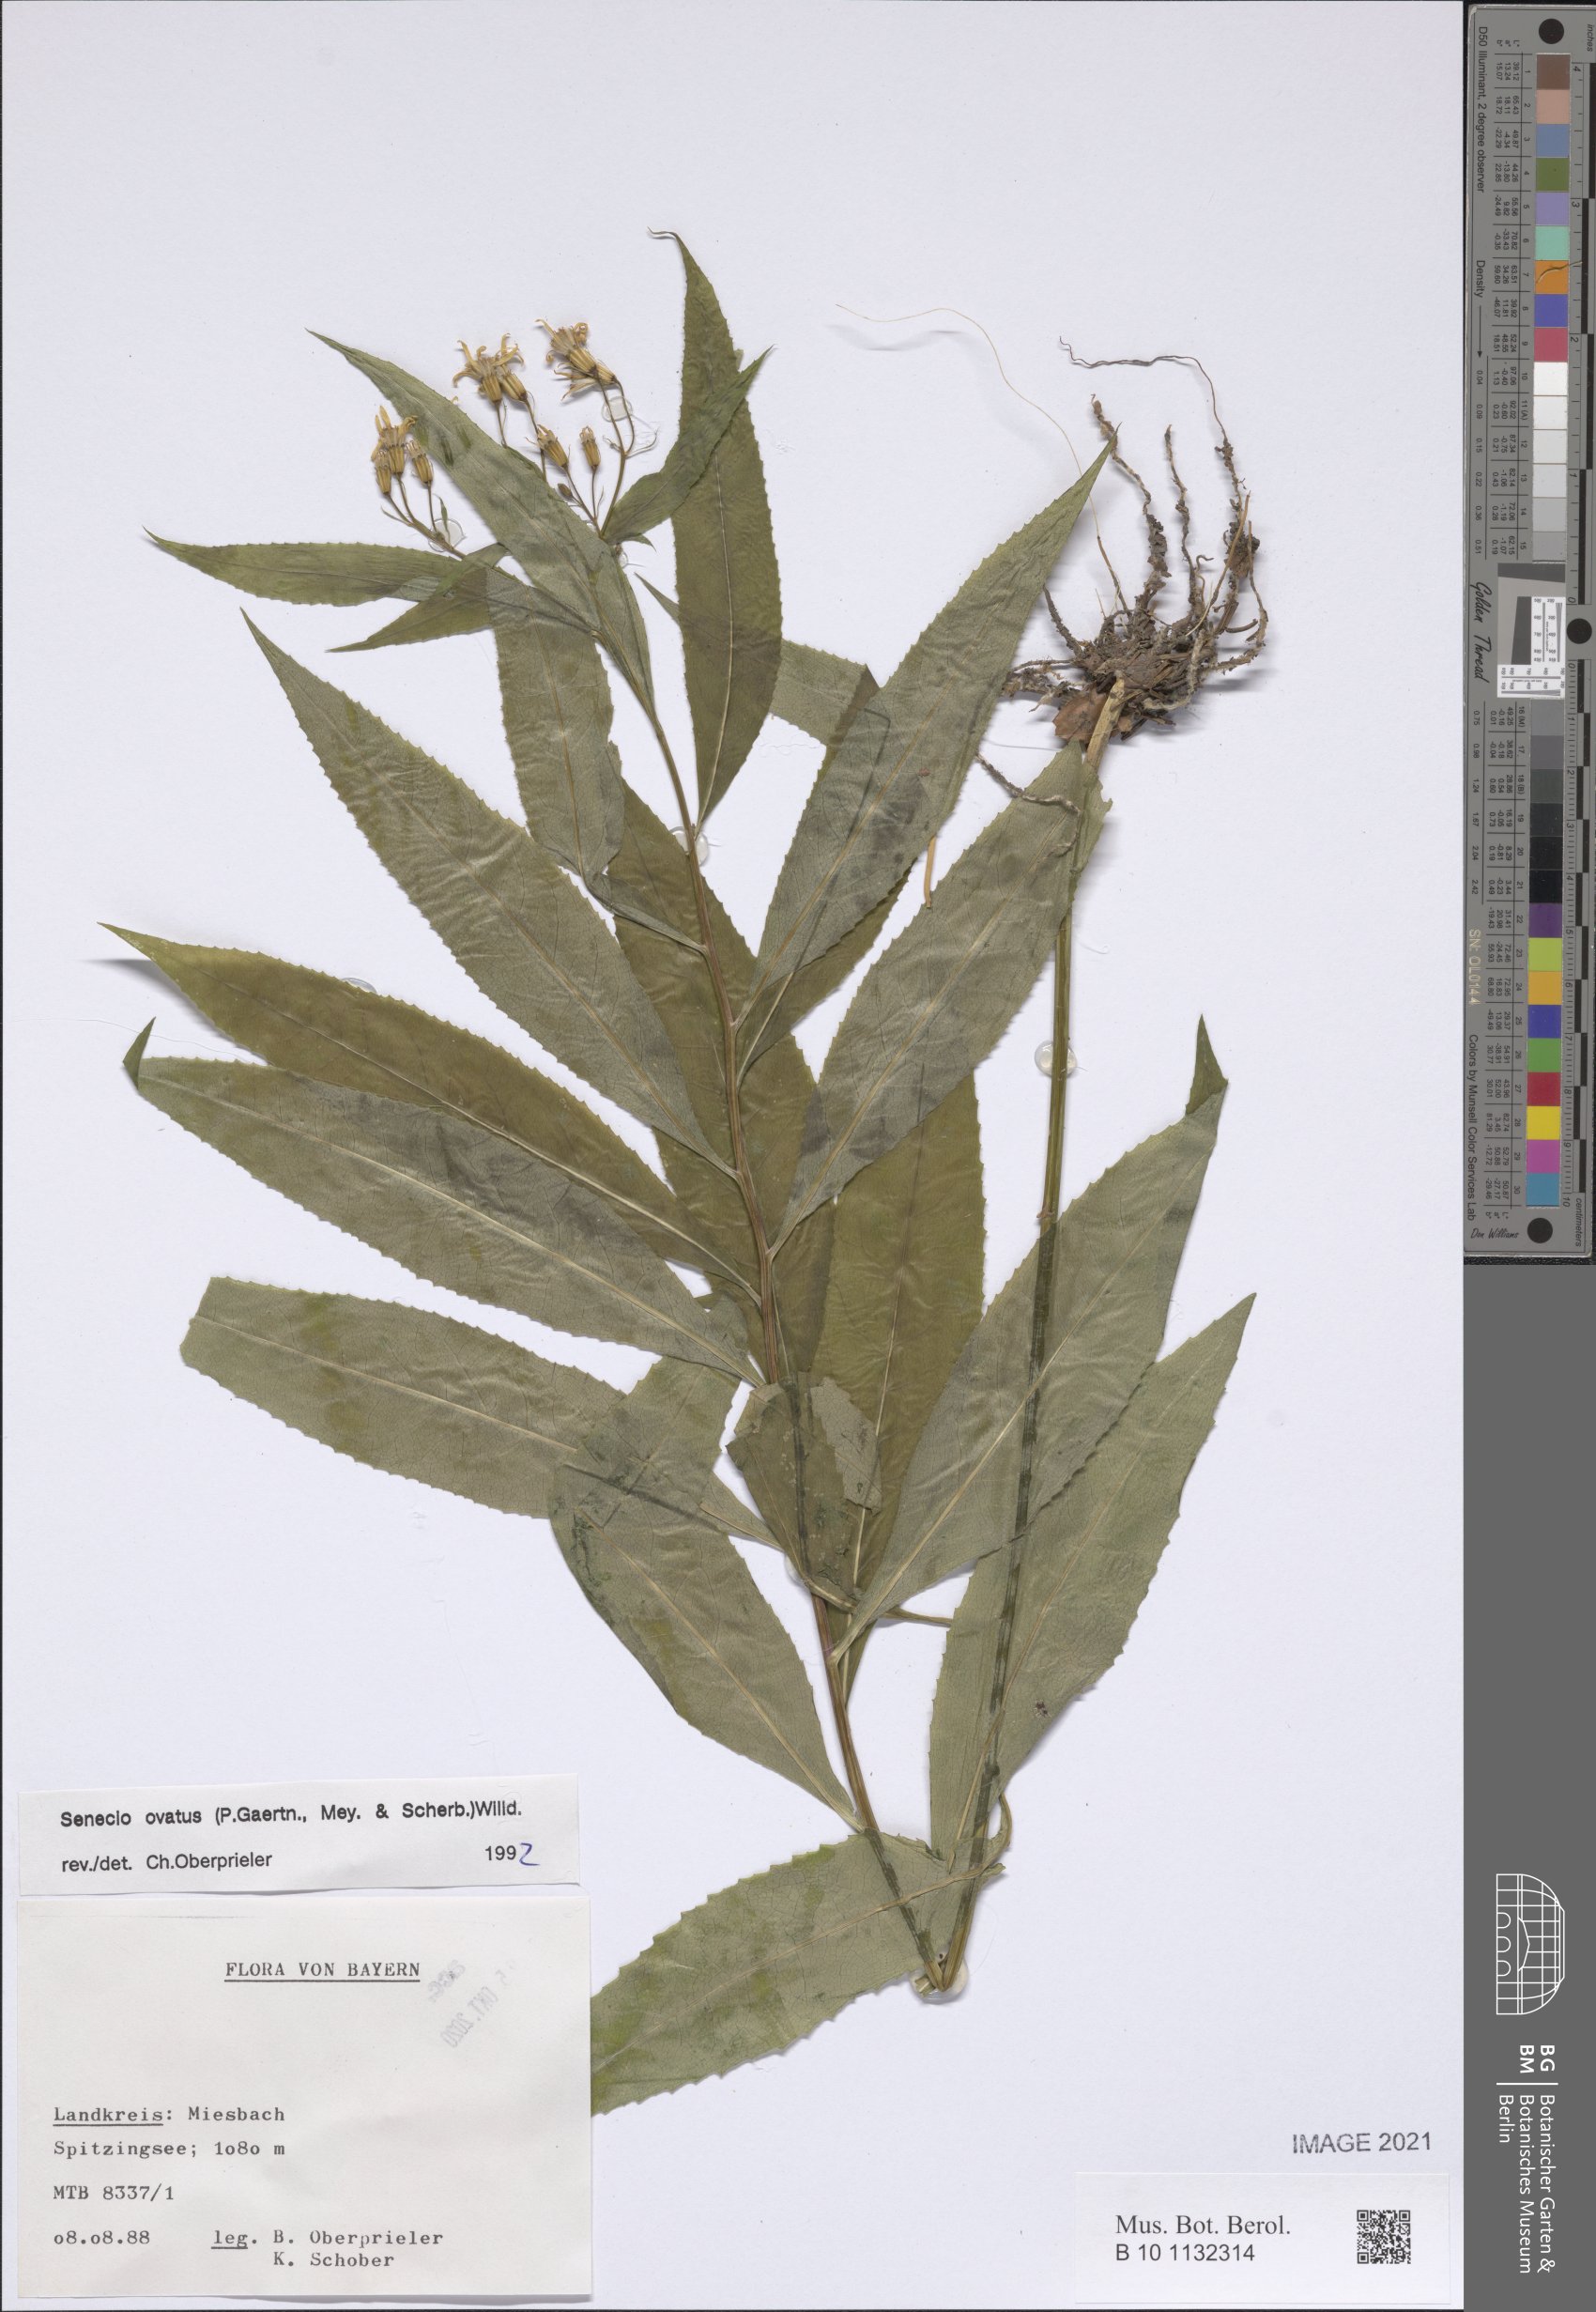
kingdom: Plantae
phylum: Tracheophyta
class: Magnoliopsida
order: Asterales
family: Asteraceae
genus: Senecio
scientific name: Senecio ovatus
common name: Wood ragwort
